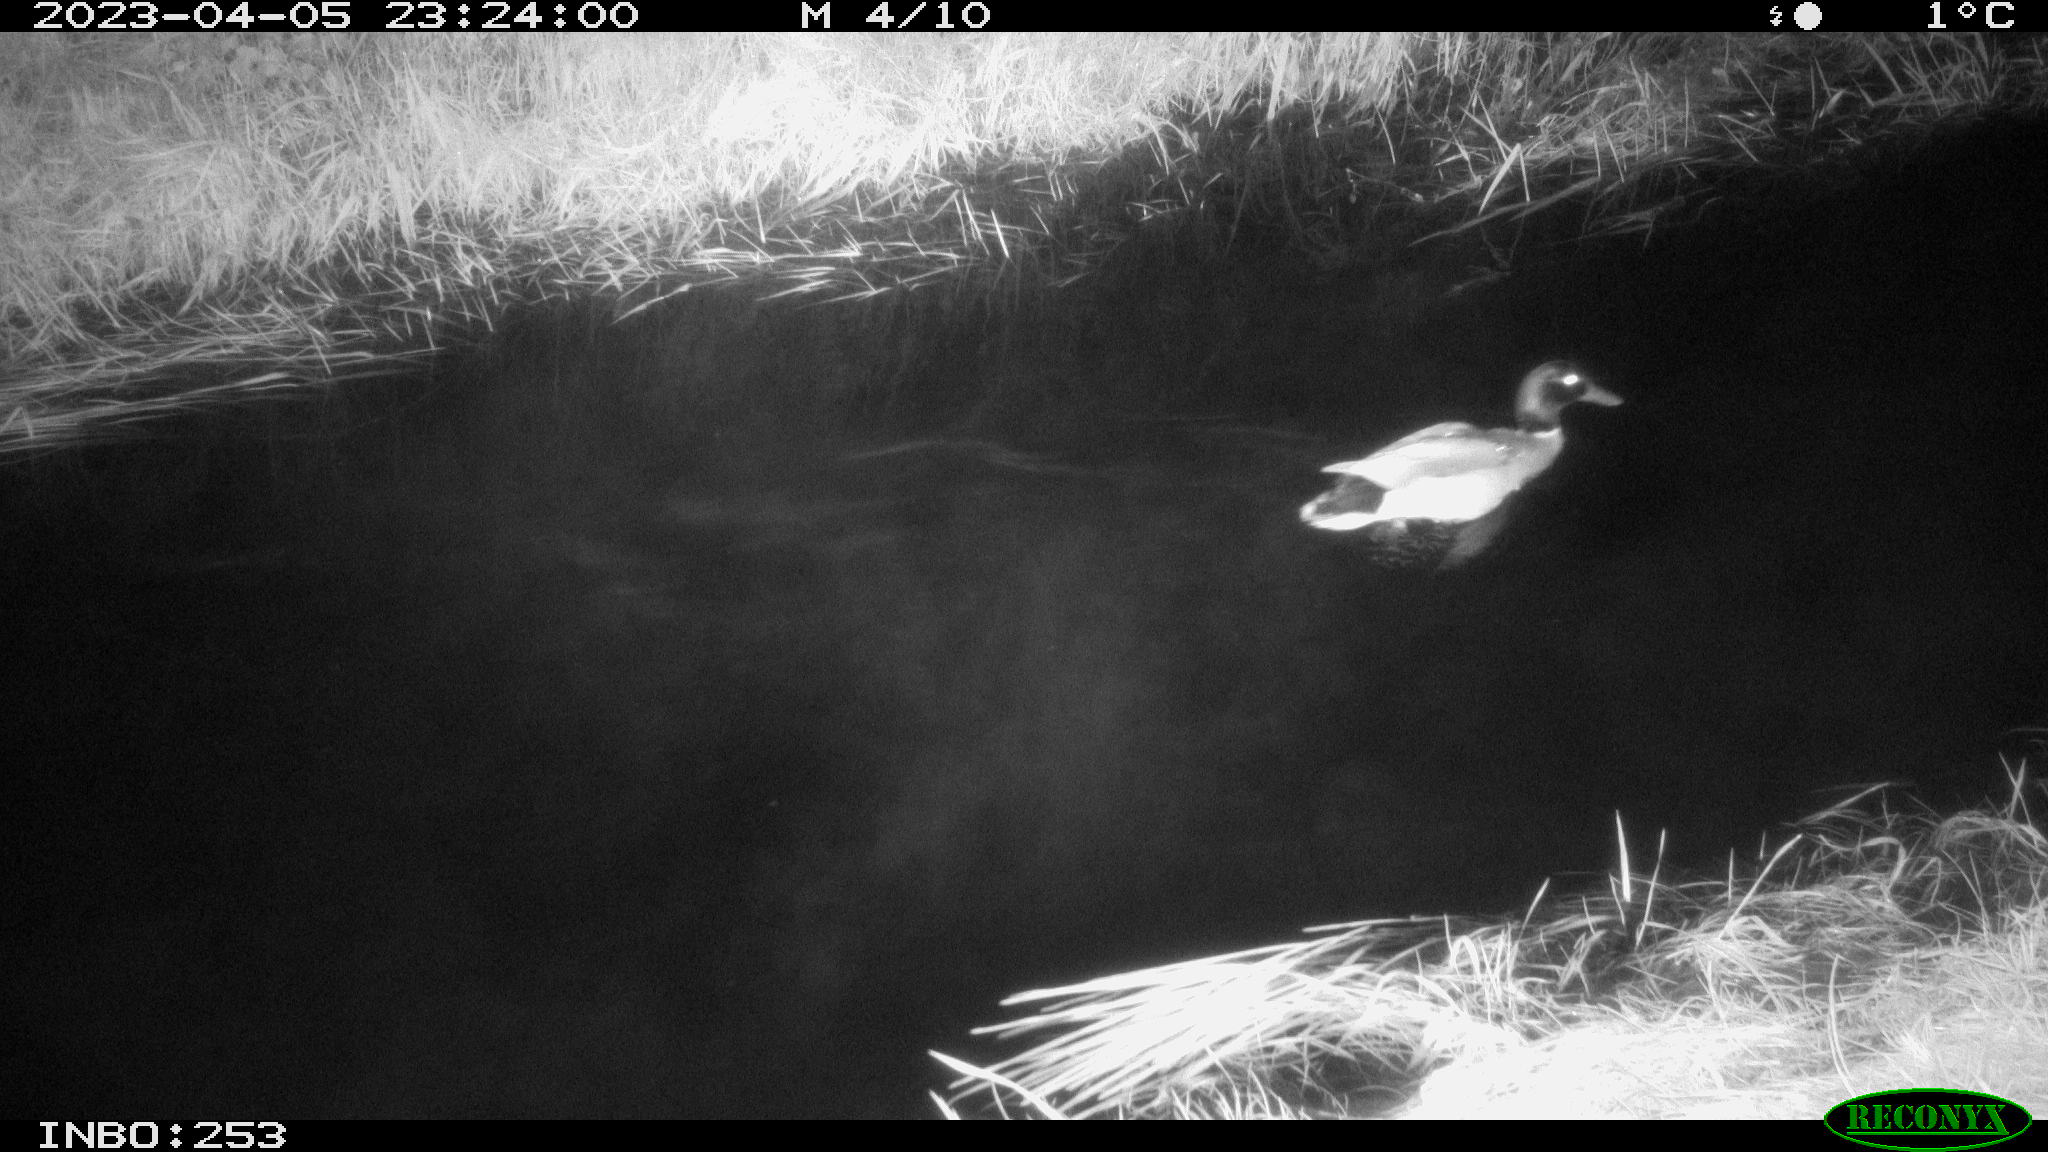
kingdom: Animalia
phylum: Chordata
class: Aves
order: Anseriformes
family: Anatidae
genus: Anas
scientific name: Anas
